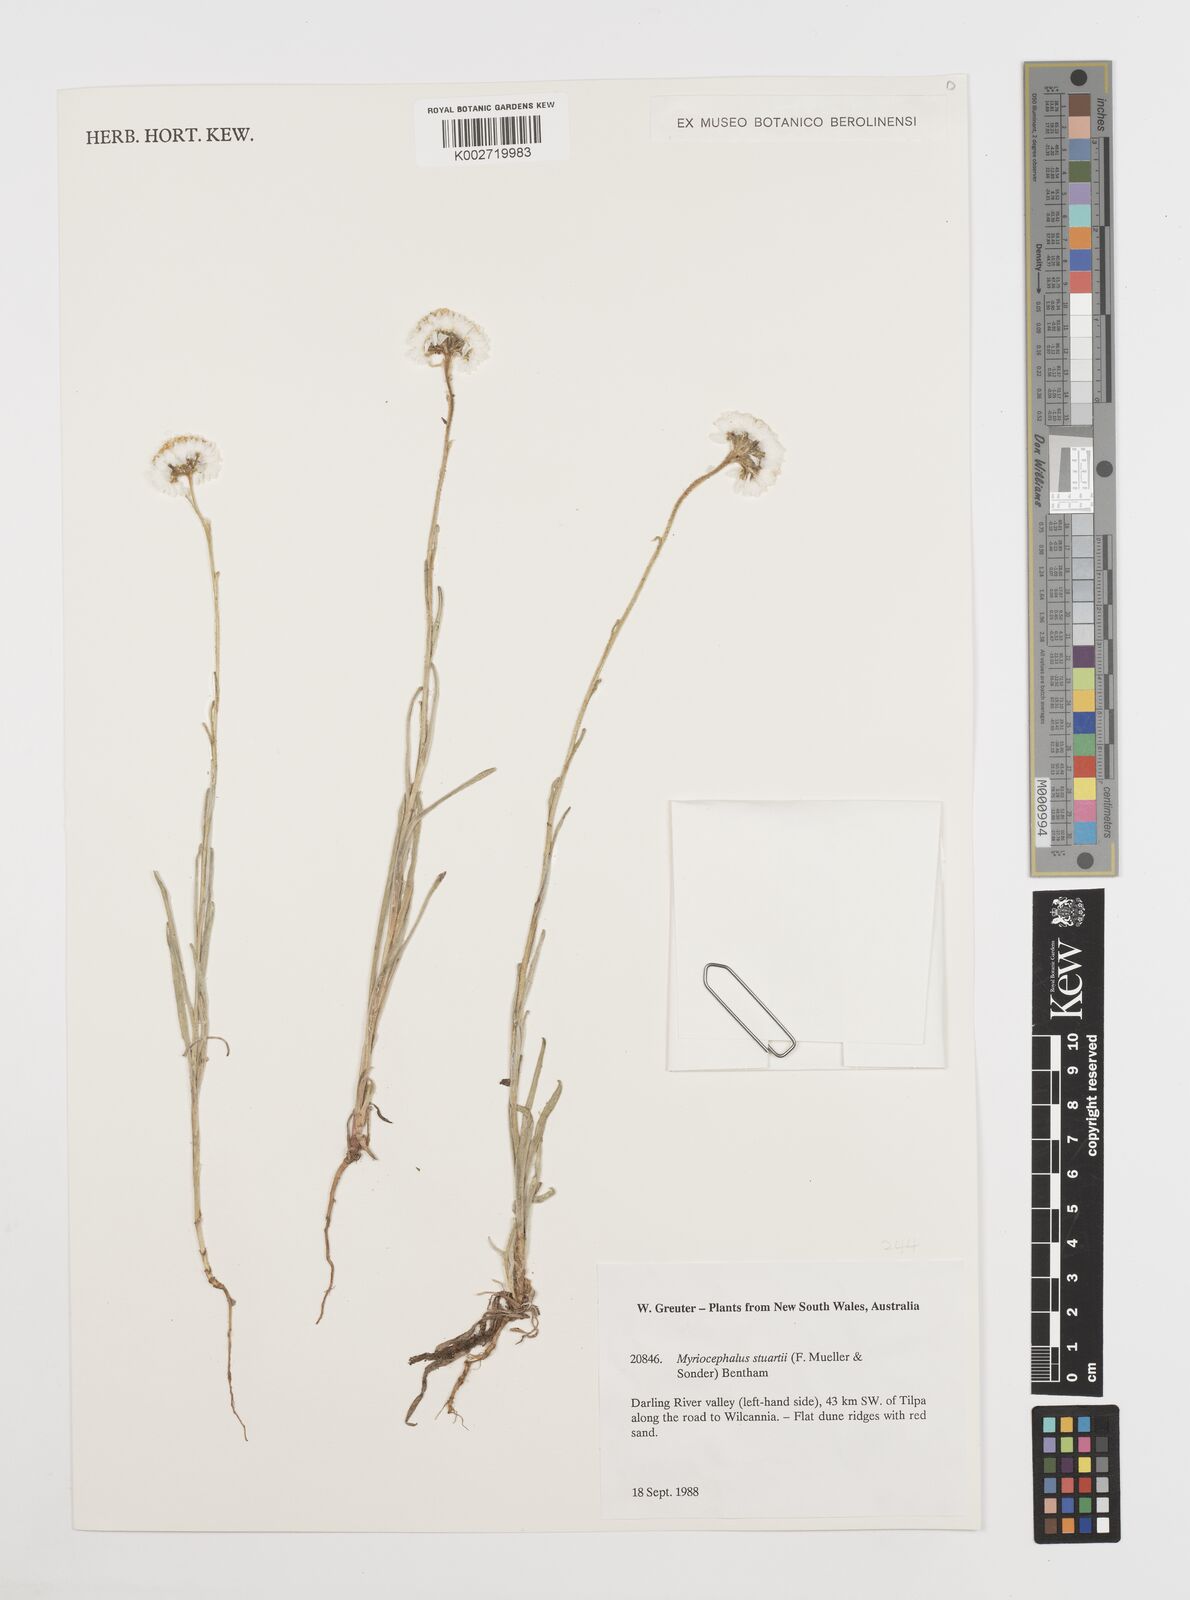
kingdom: Plantae
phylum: Tracheophyta
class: Magnoliopsida
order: Asterales
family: Asteraceae
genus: Polycalymma
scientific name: Polycalymma stuartii
